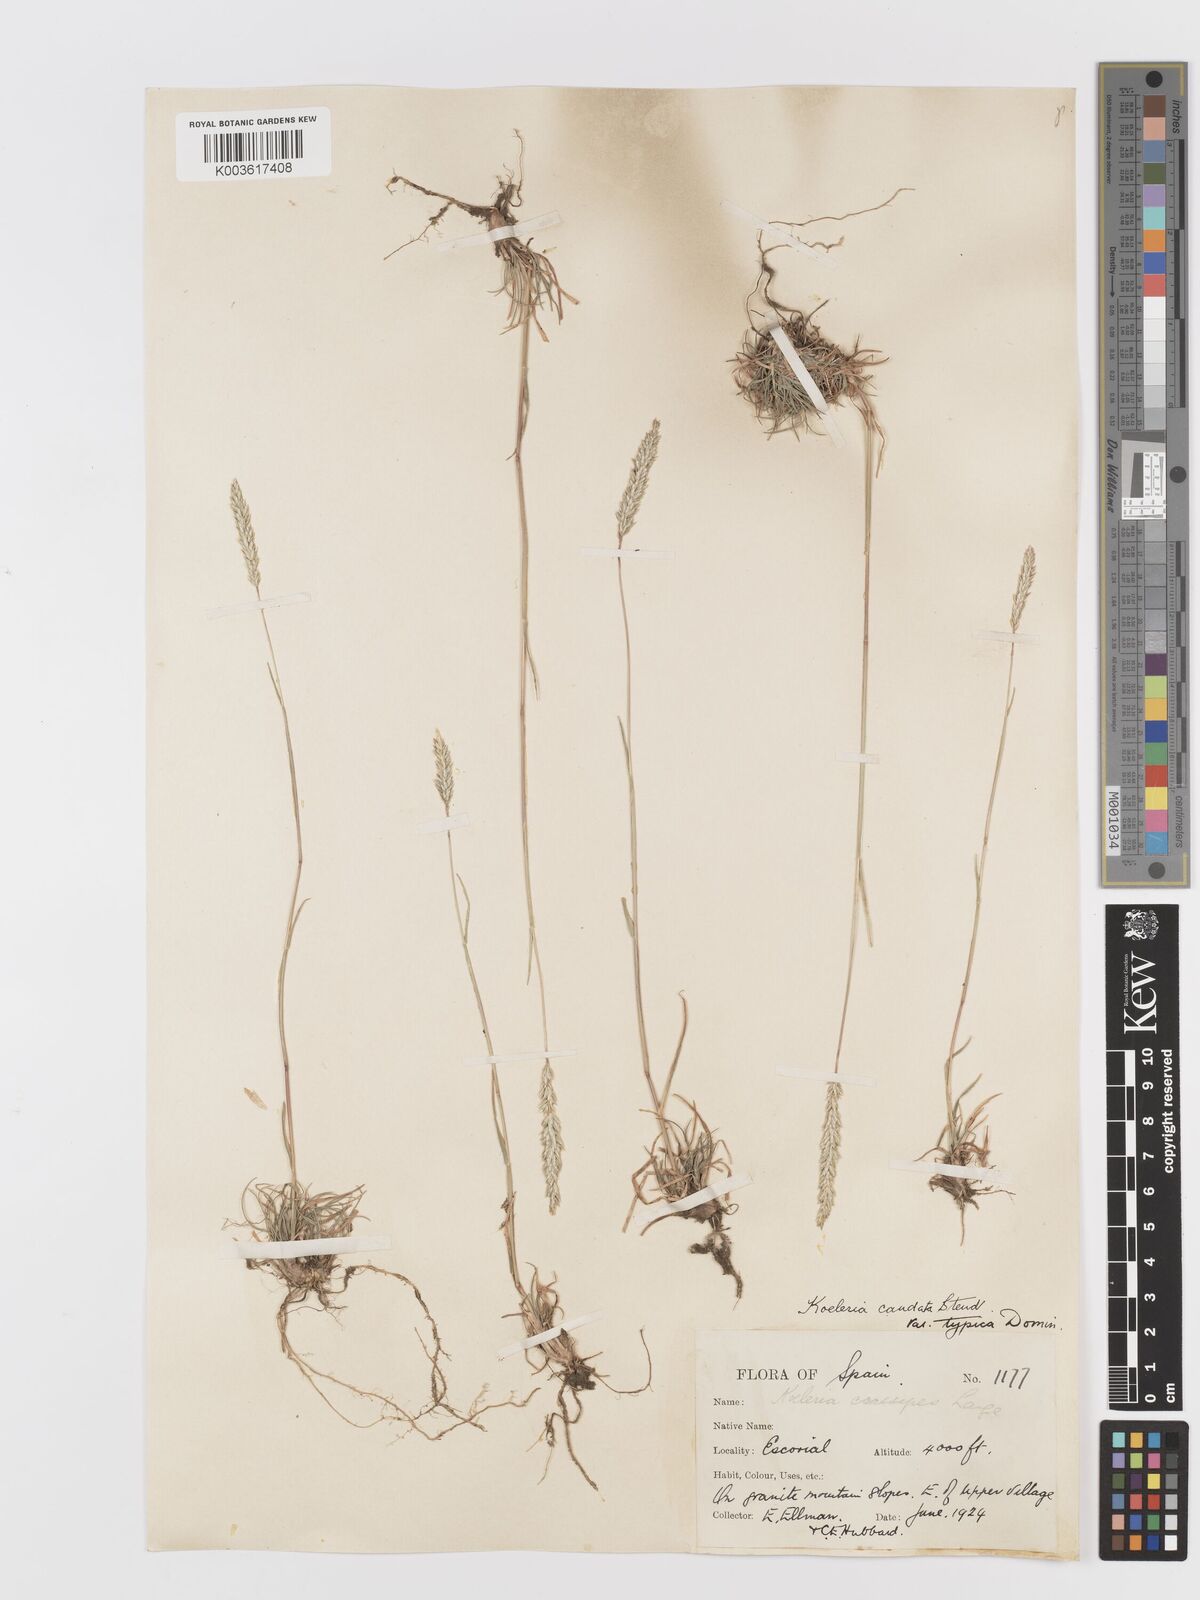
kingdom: Plantae
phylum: Tracheophyta
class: Liliopsida
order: Poales
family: Poaceae
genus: Koeleria
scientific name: Koeleria crassipes
